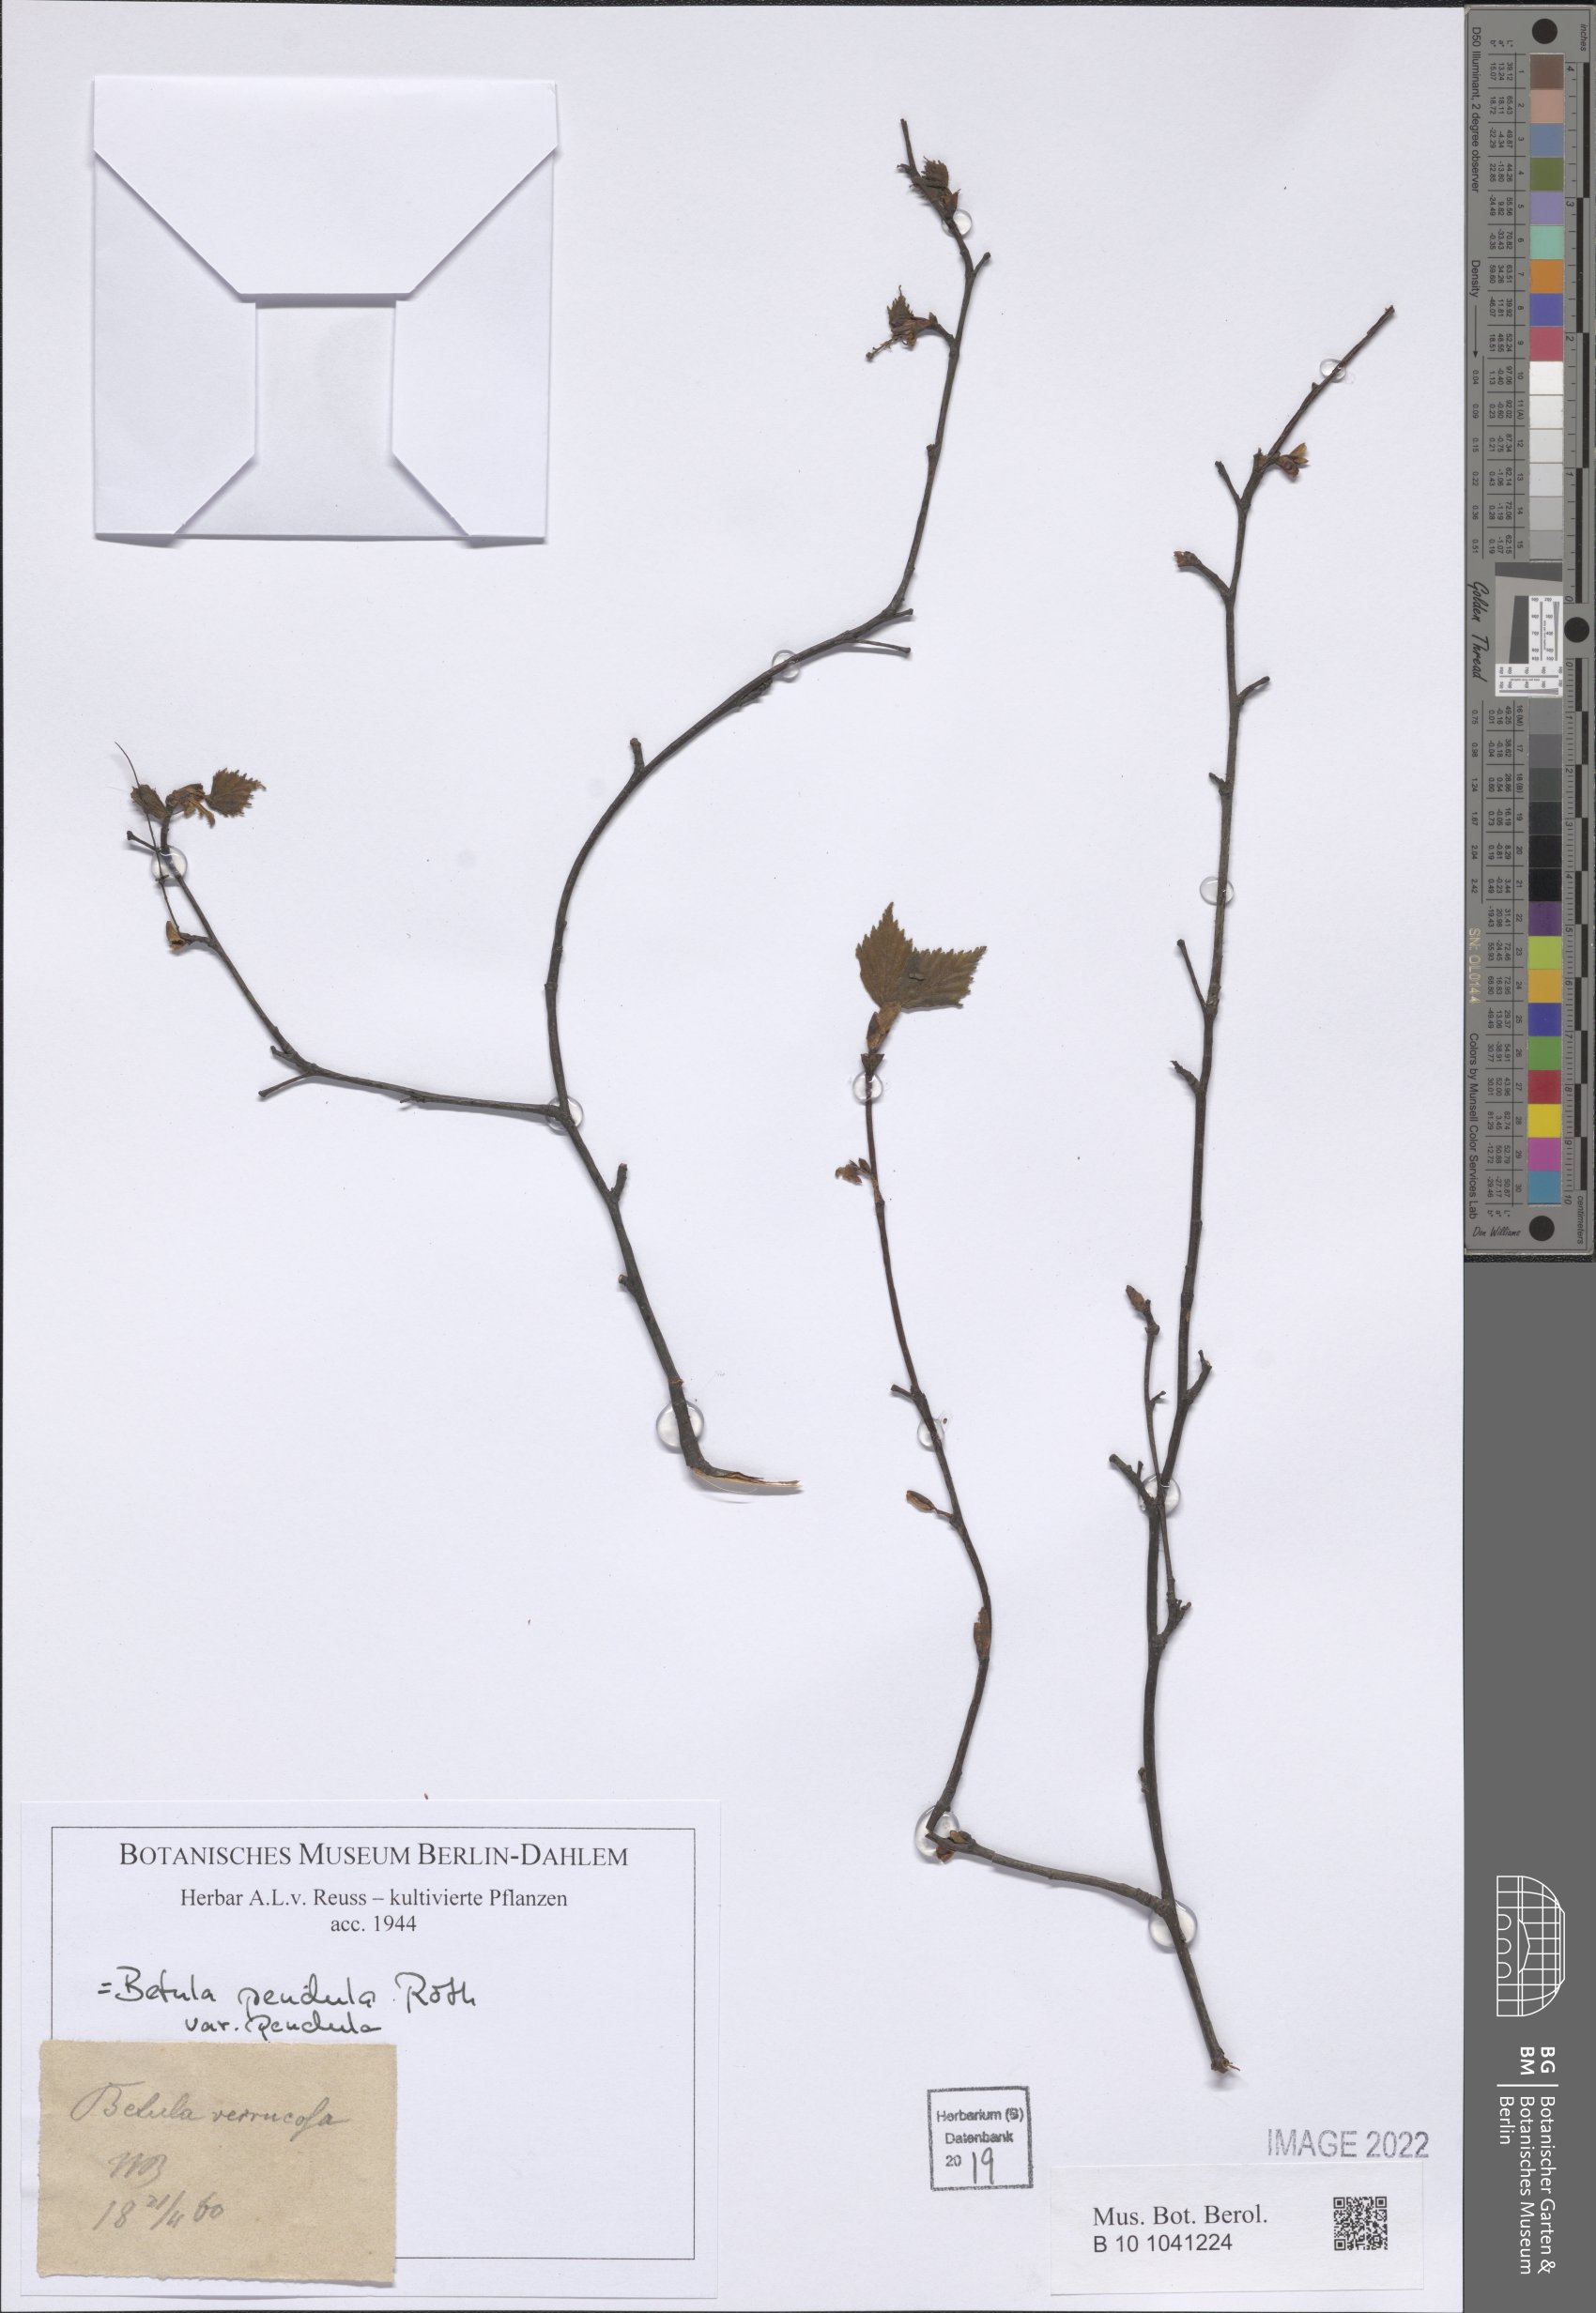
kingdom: Plantae
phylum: Tracheophyta
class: Magnoliopsida
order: Fagales
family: Betulaceae
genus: Betula
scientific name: Betula pendula
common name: Silver birch
